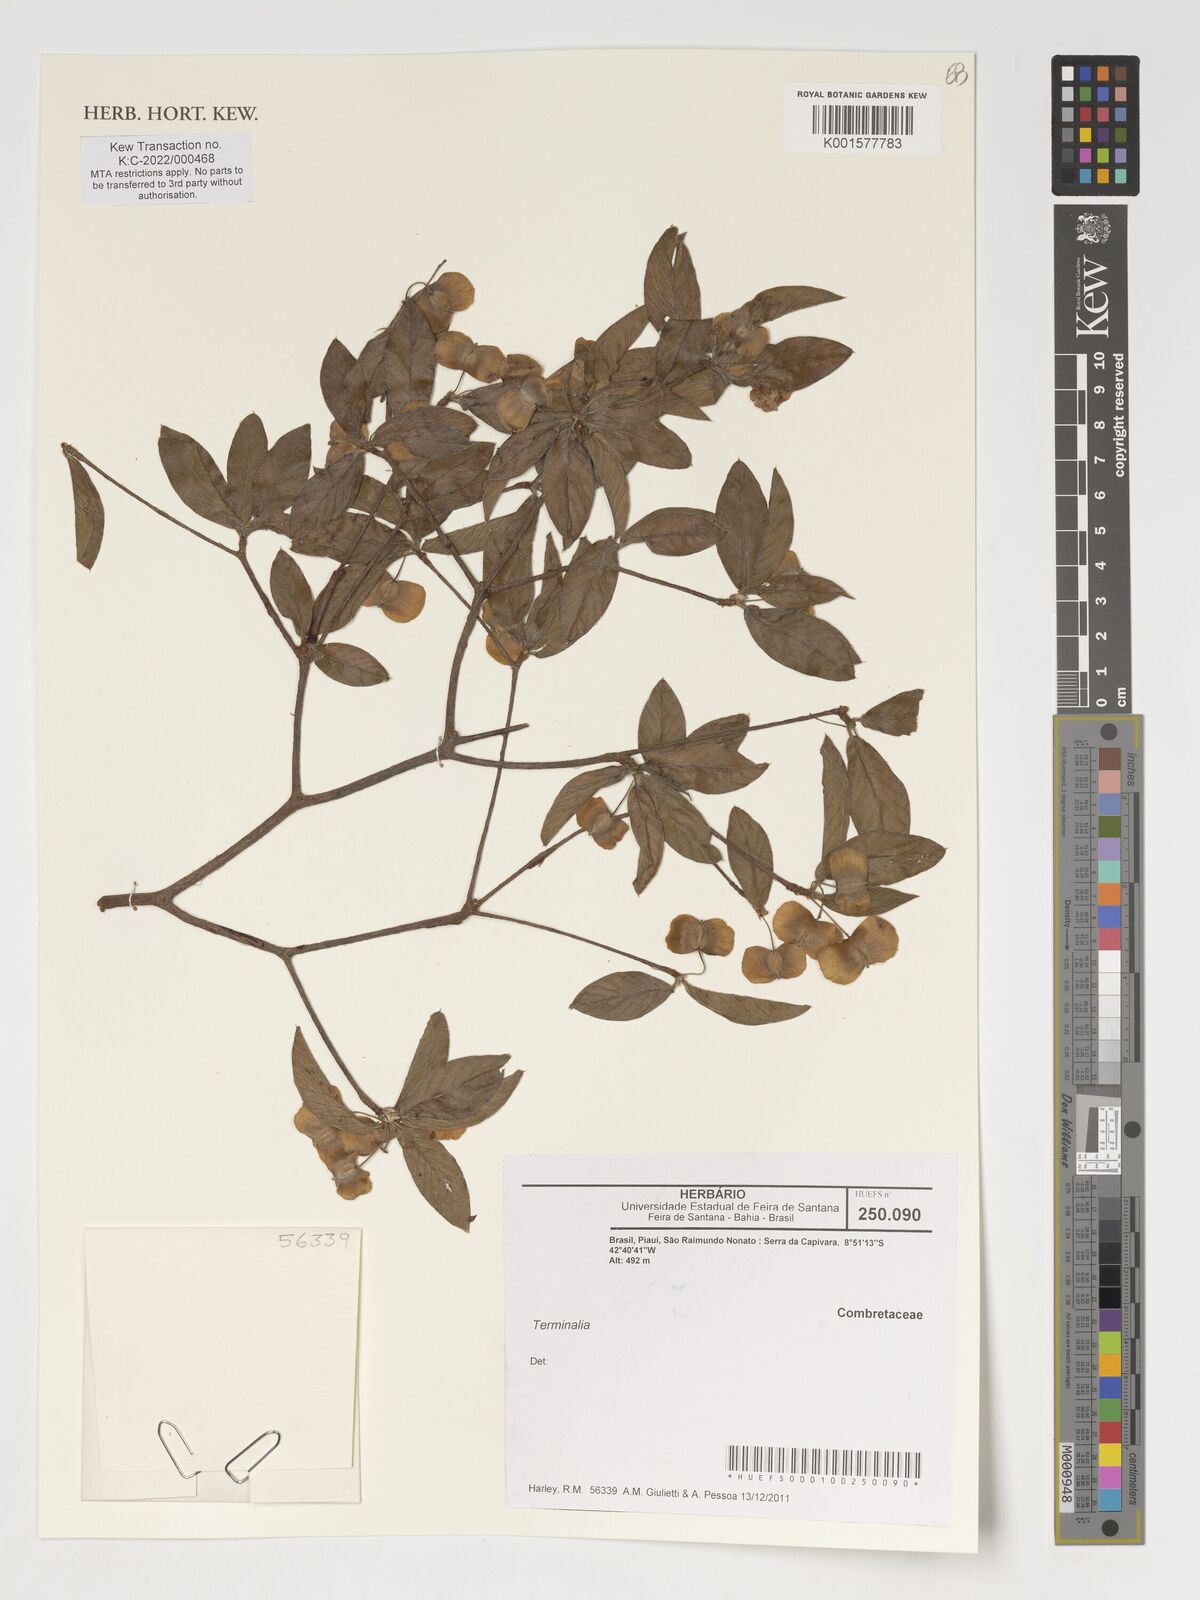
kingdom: Plantae
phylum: Tracheophyta
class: Magnoliopsida
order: Myrtales
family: Combretaceae
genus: Terminalia
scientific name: Terminalia
